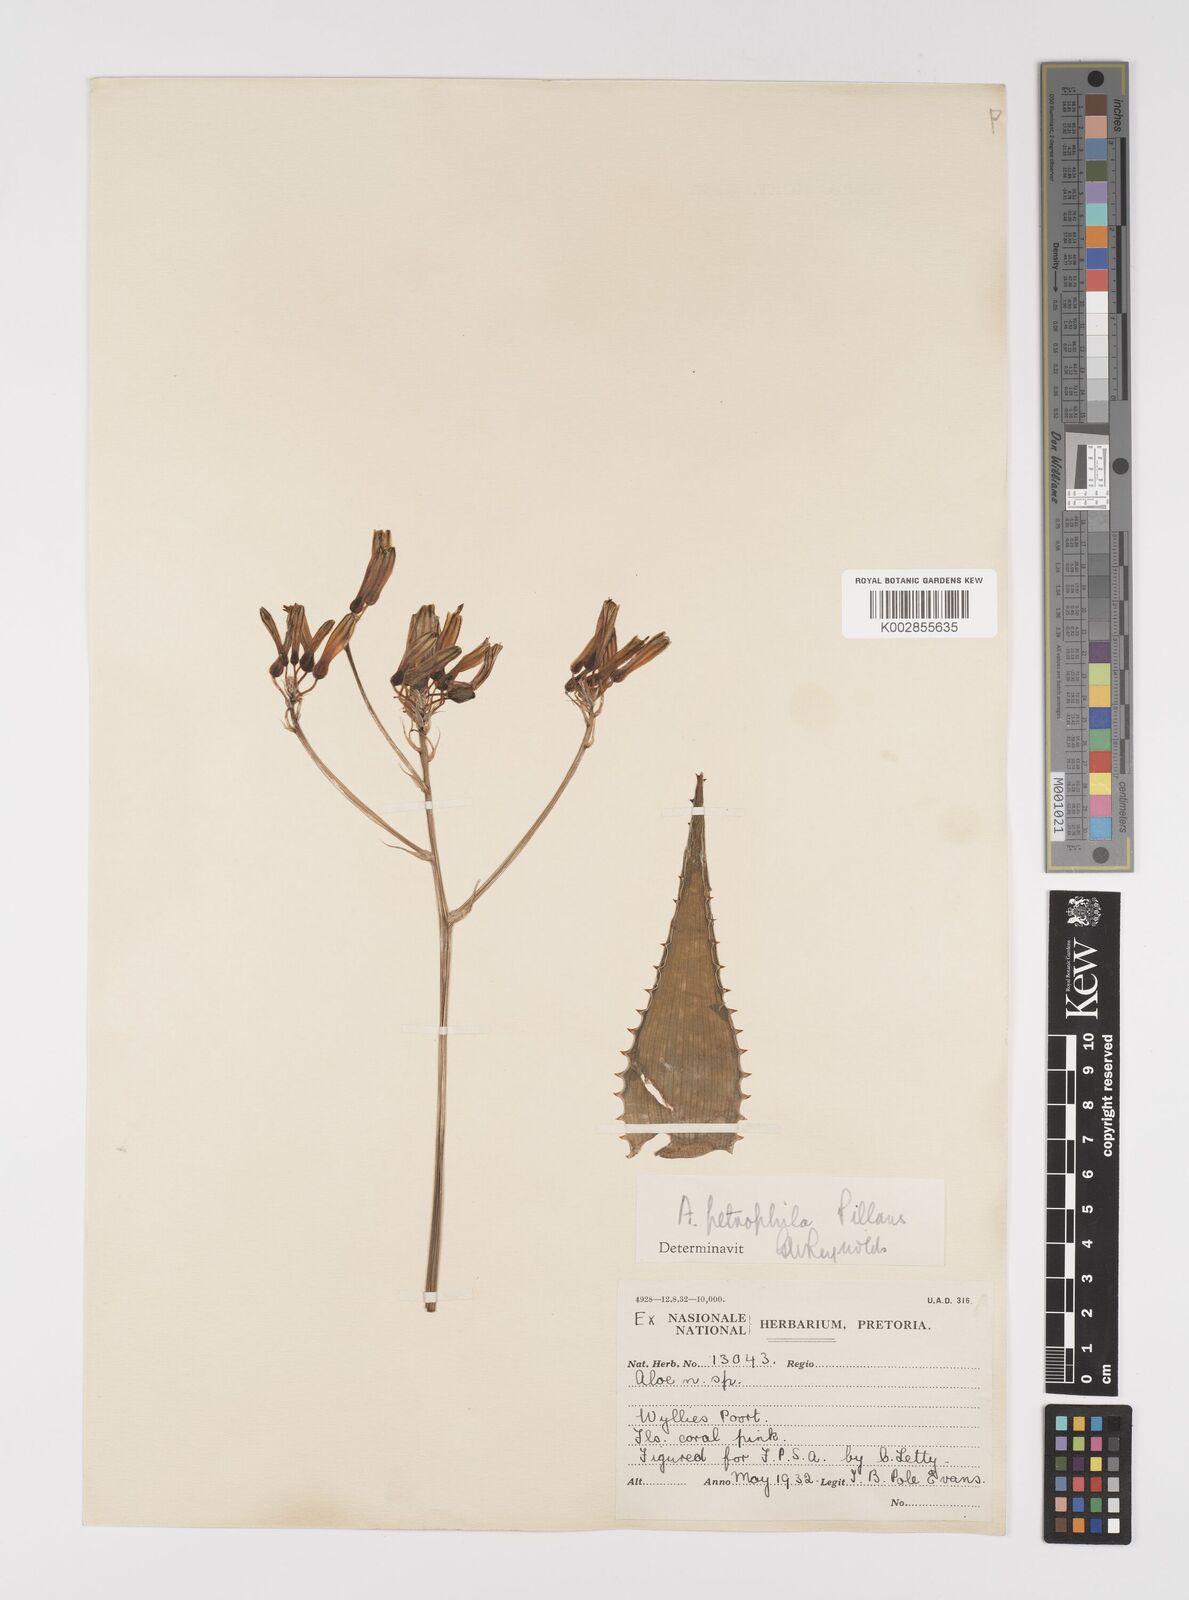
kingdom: Plantae
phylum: Tracheophyta
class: Liliopsida
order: Asparagales
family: Asphodelaceae
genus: Aloe
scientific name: Aloe petrophila
